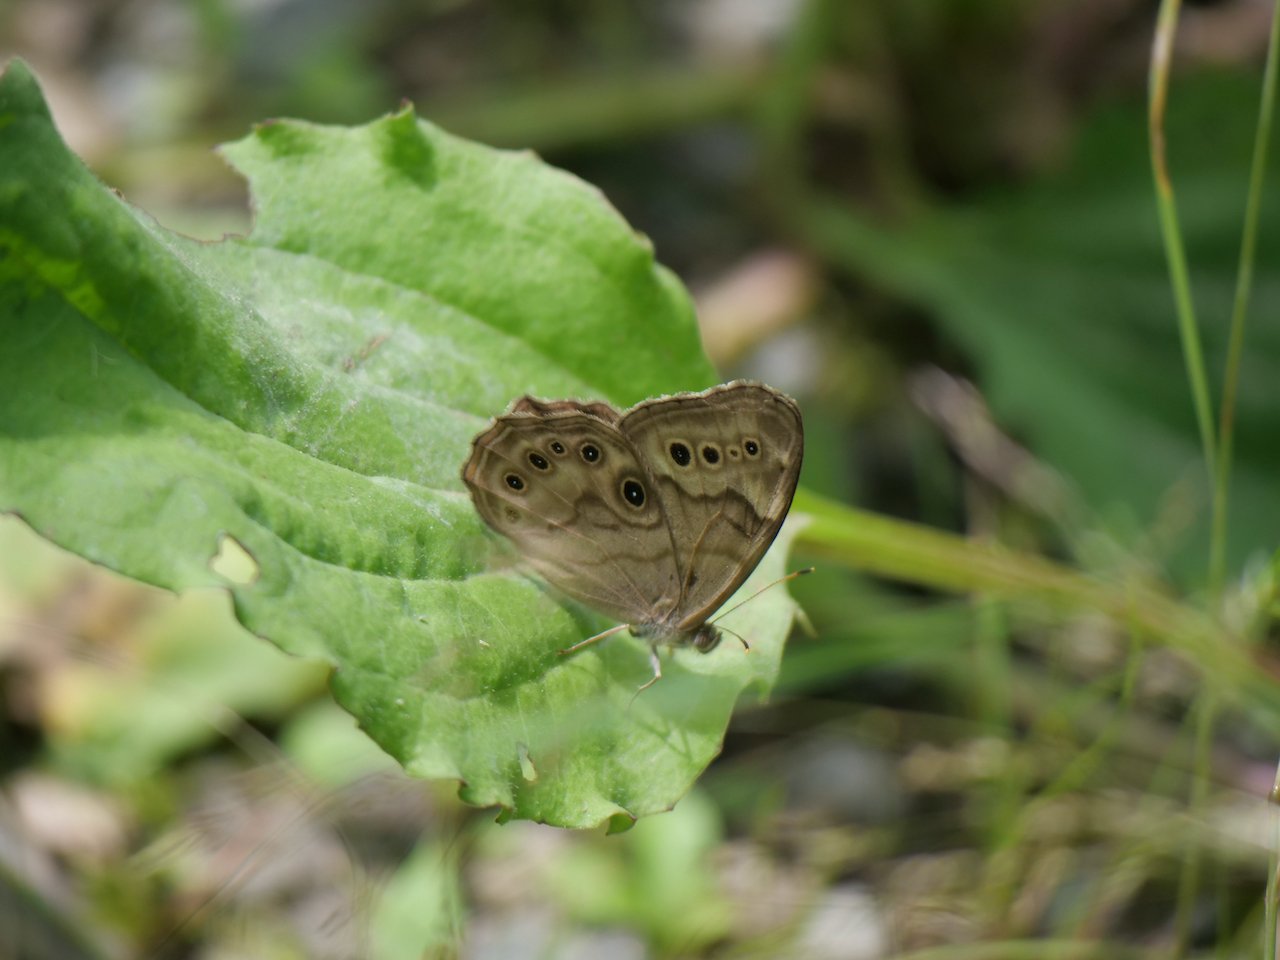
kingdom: Animalia
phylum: Arthropoda
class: Insecta
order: Lepidoptera
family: Nymphalidae
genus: Lethe
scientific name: Lethe anthedon
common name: Northern Pearly-Eye
